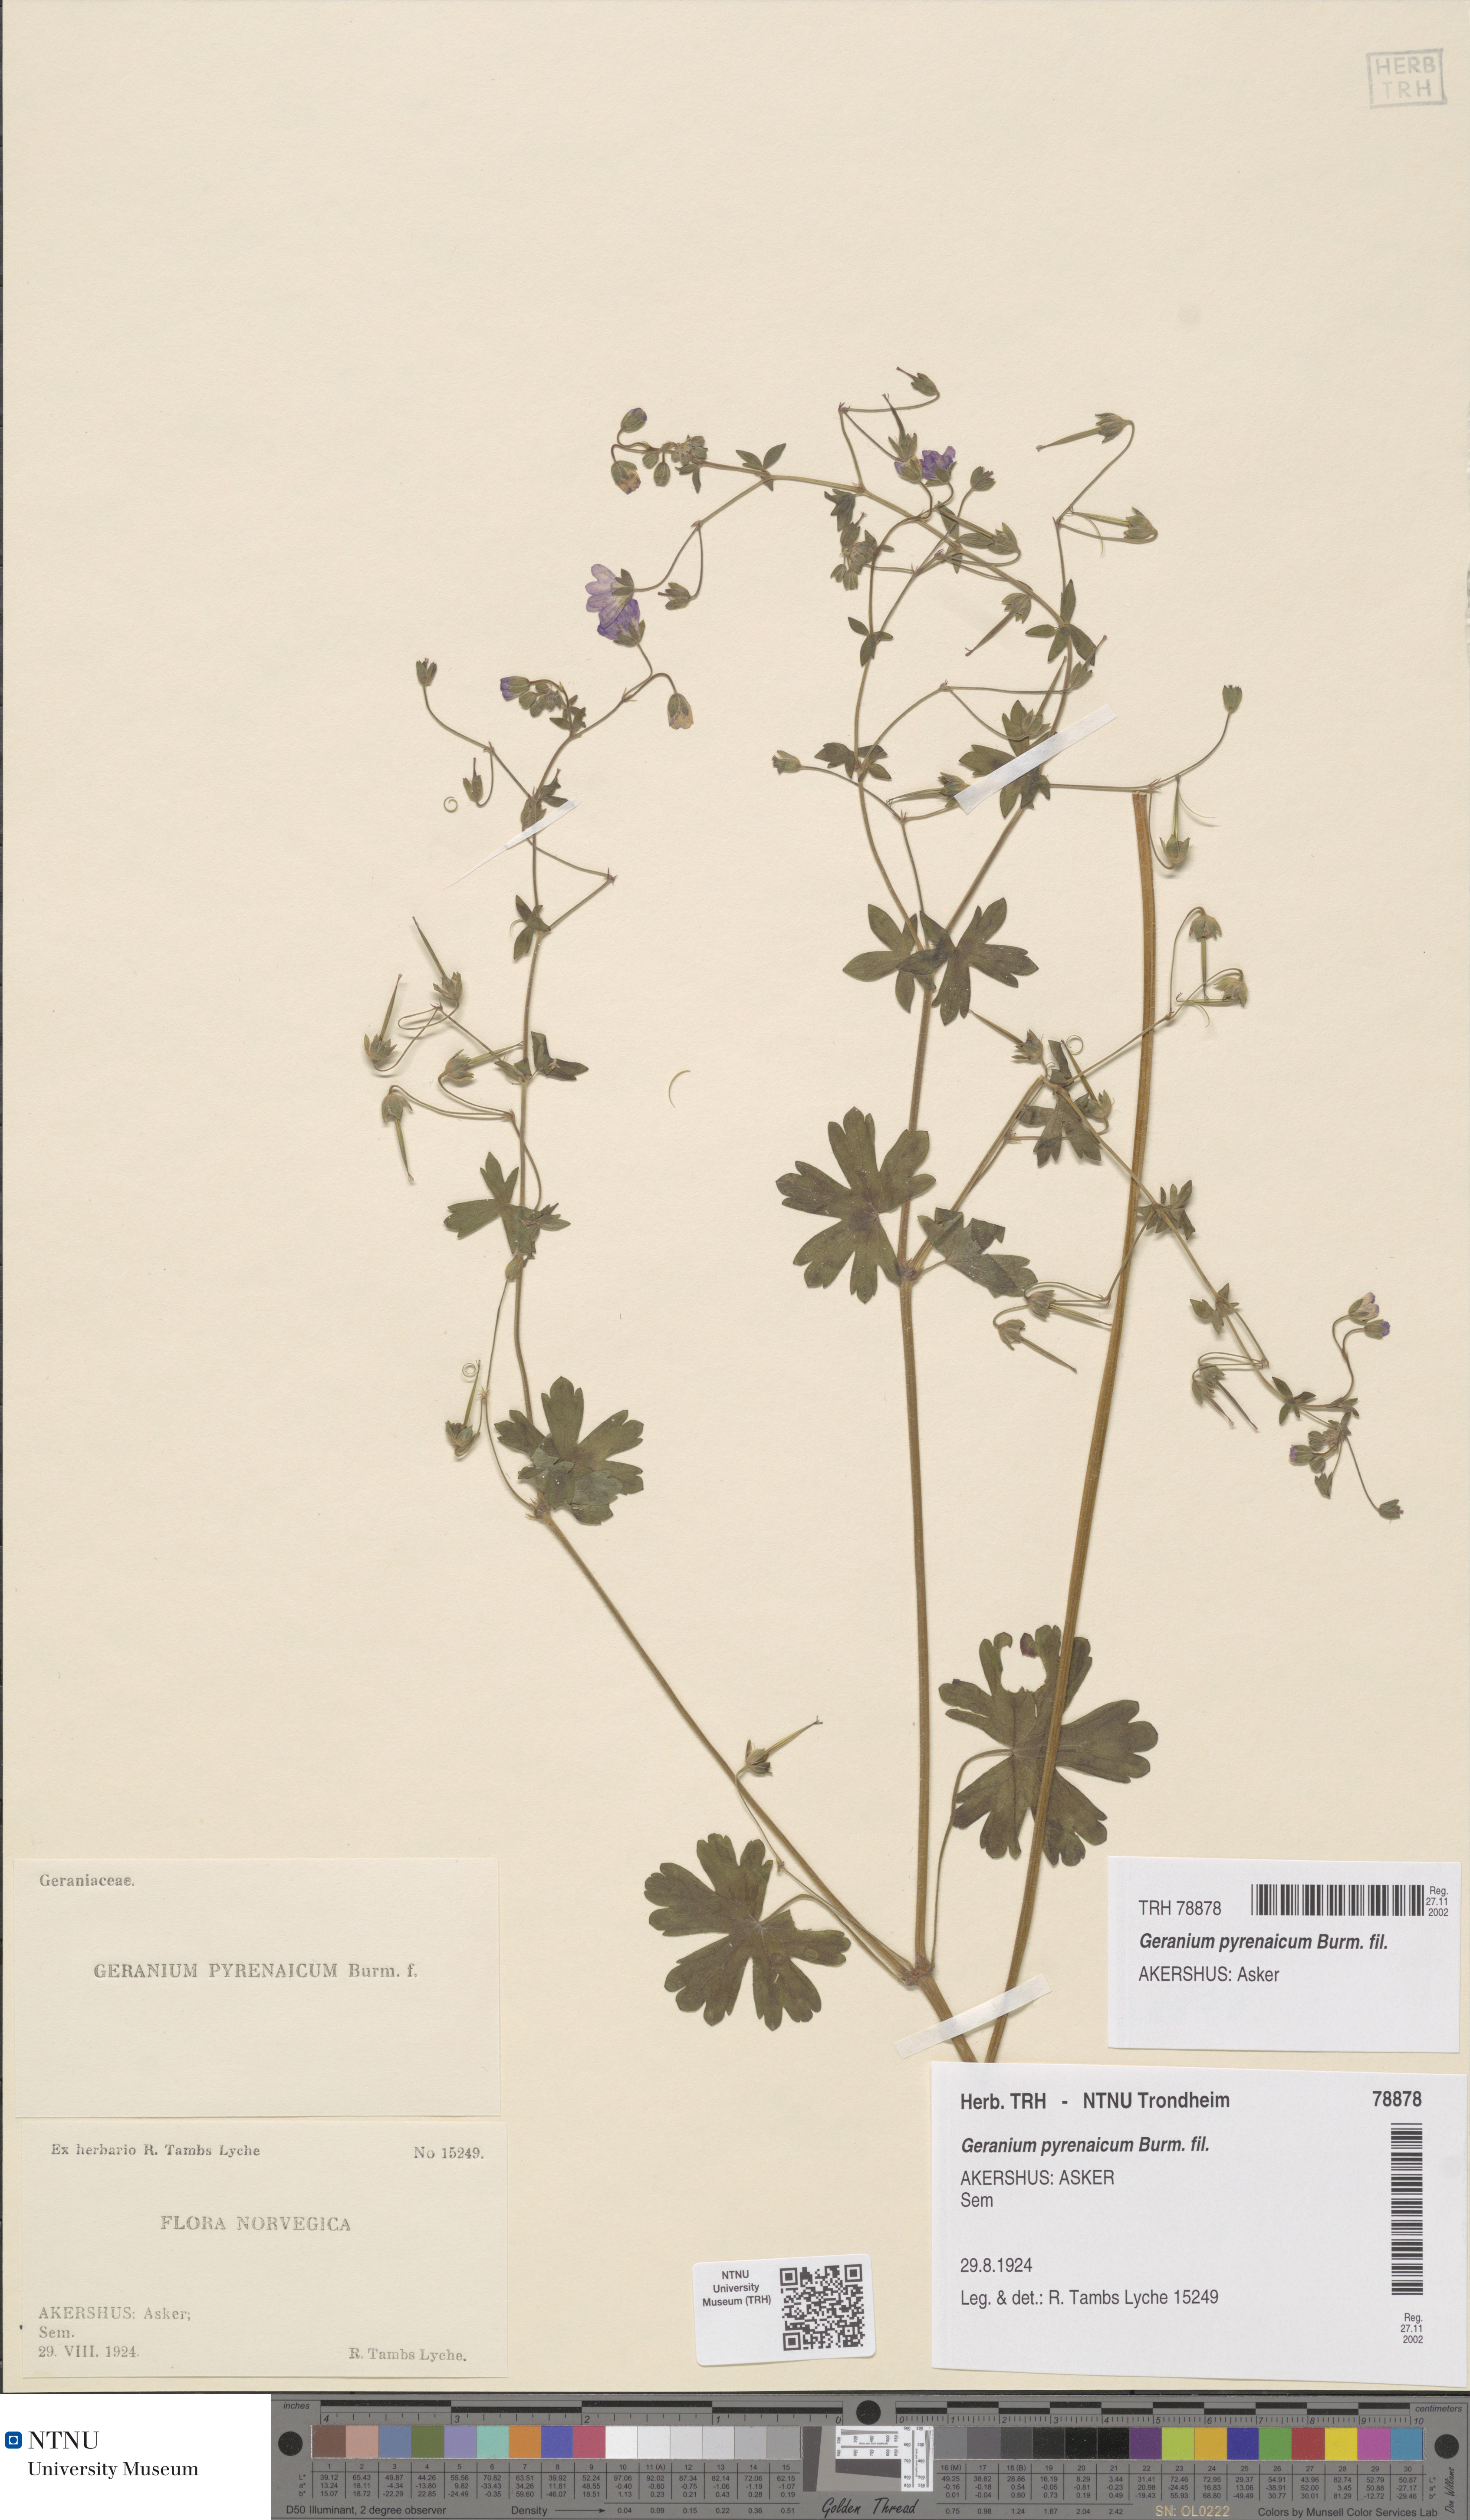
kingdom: Plantae
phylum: Tracheophyta
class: Magnoliopsida
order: Geraniales
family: Geraniaceae
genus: Geranium
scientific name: Geranium pyrenaicum
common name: Hedgerow crane's-bill
